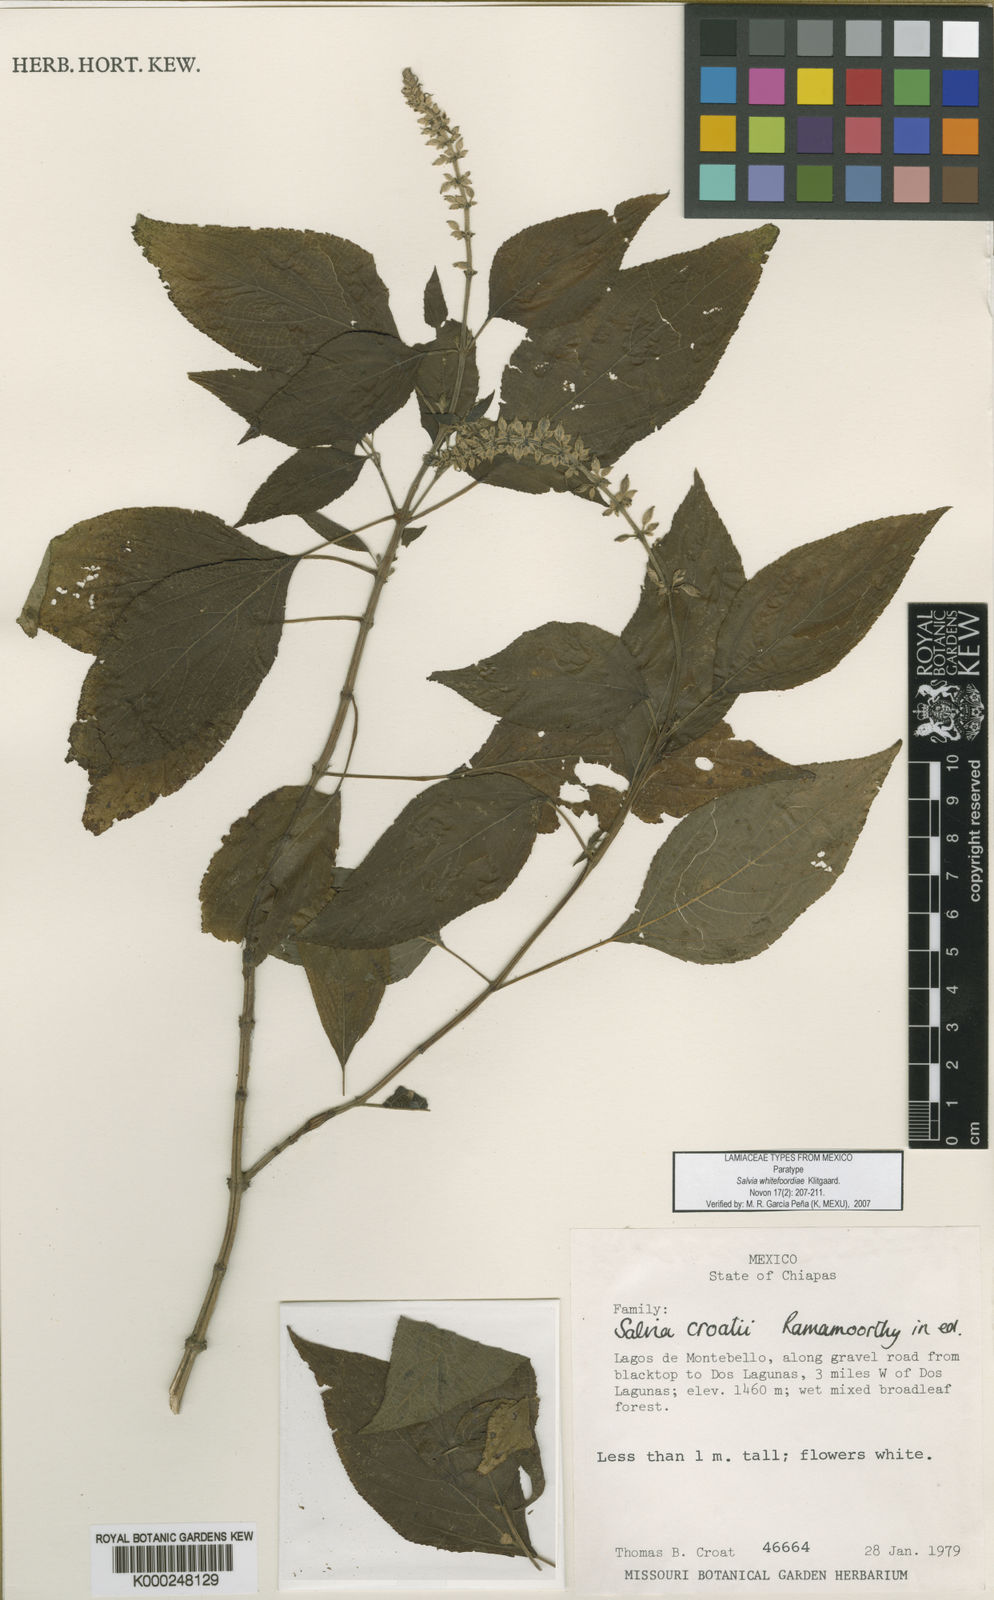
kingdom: Plantae
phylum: Tracheophyta
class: Magnoliopsida
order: Lamiales
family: Lamiaceae
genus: Salvia
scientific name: Salvia
